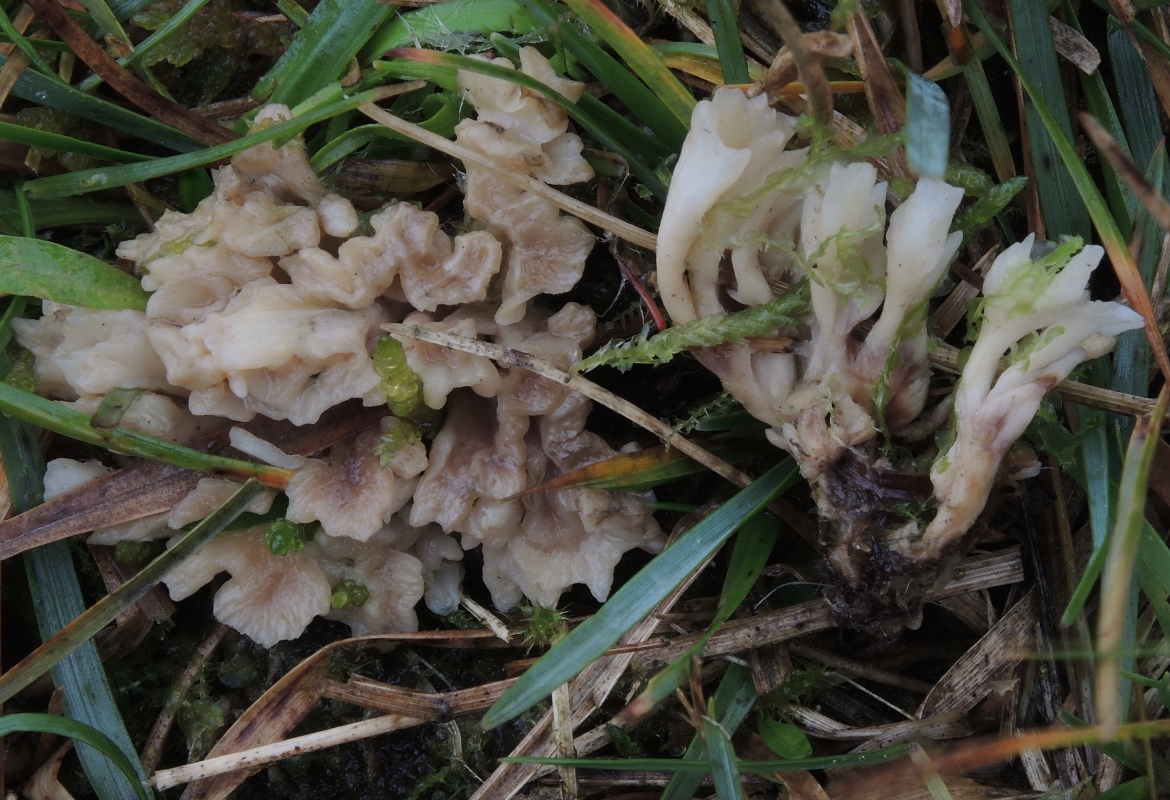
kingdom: Fungi
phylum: Basidiomycota
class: Agaricomycetes
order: Tremellodendropsidales
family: Tremellodendropsidaceae
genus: Tremellodendropsis
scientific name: Tremellodendropsis tuberosa
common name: bævrekølle
